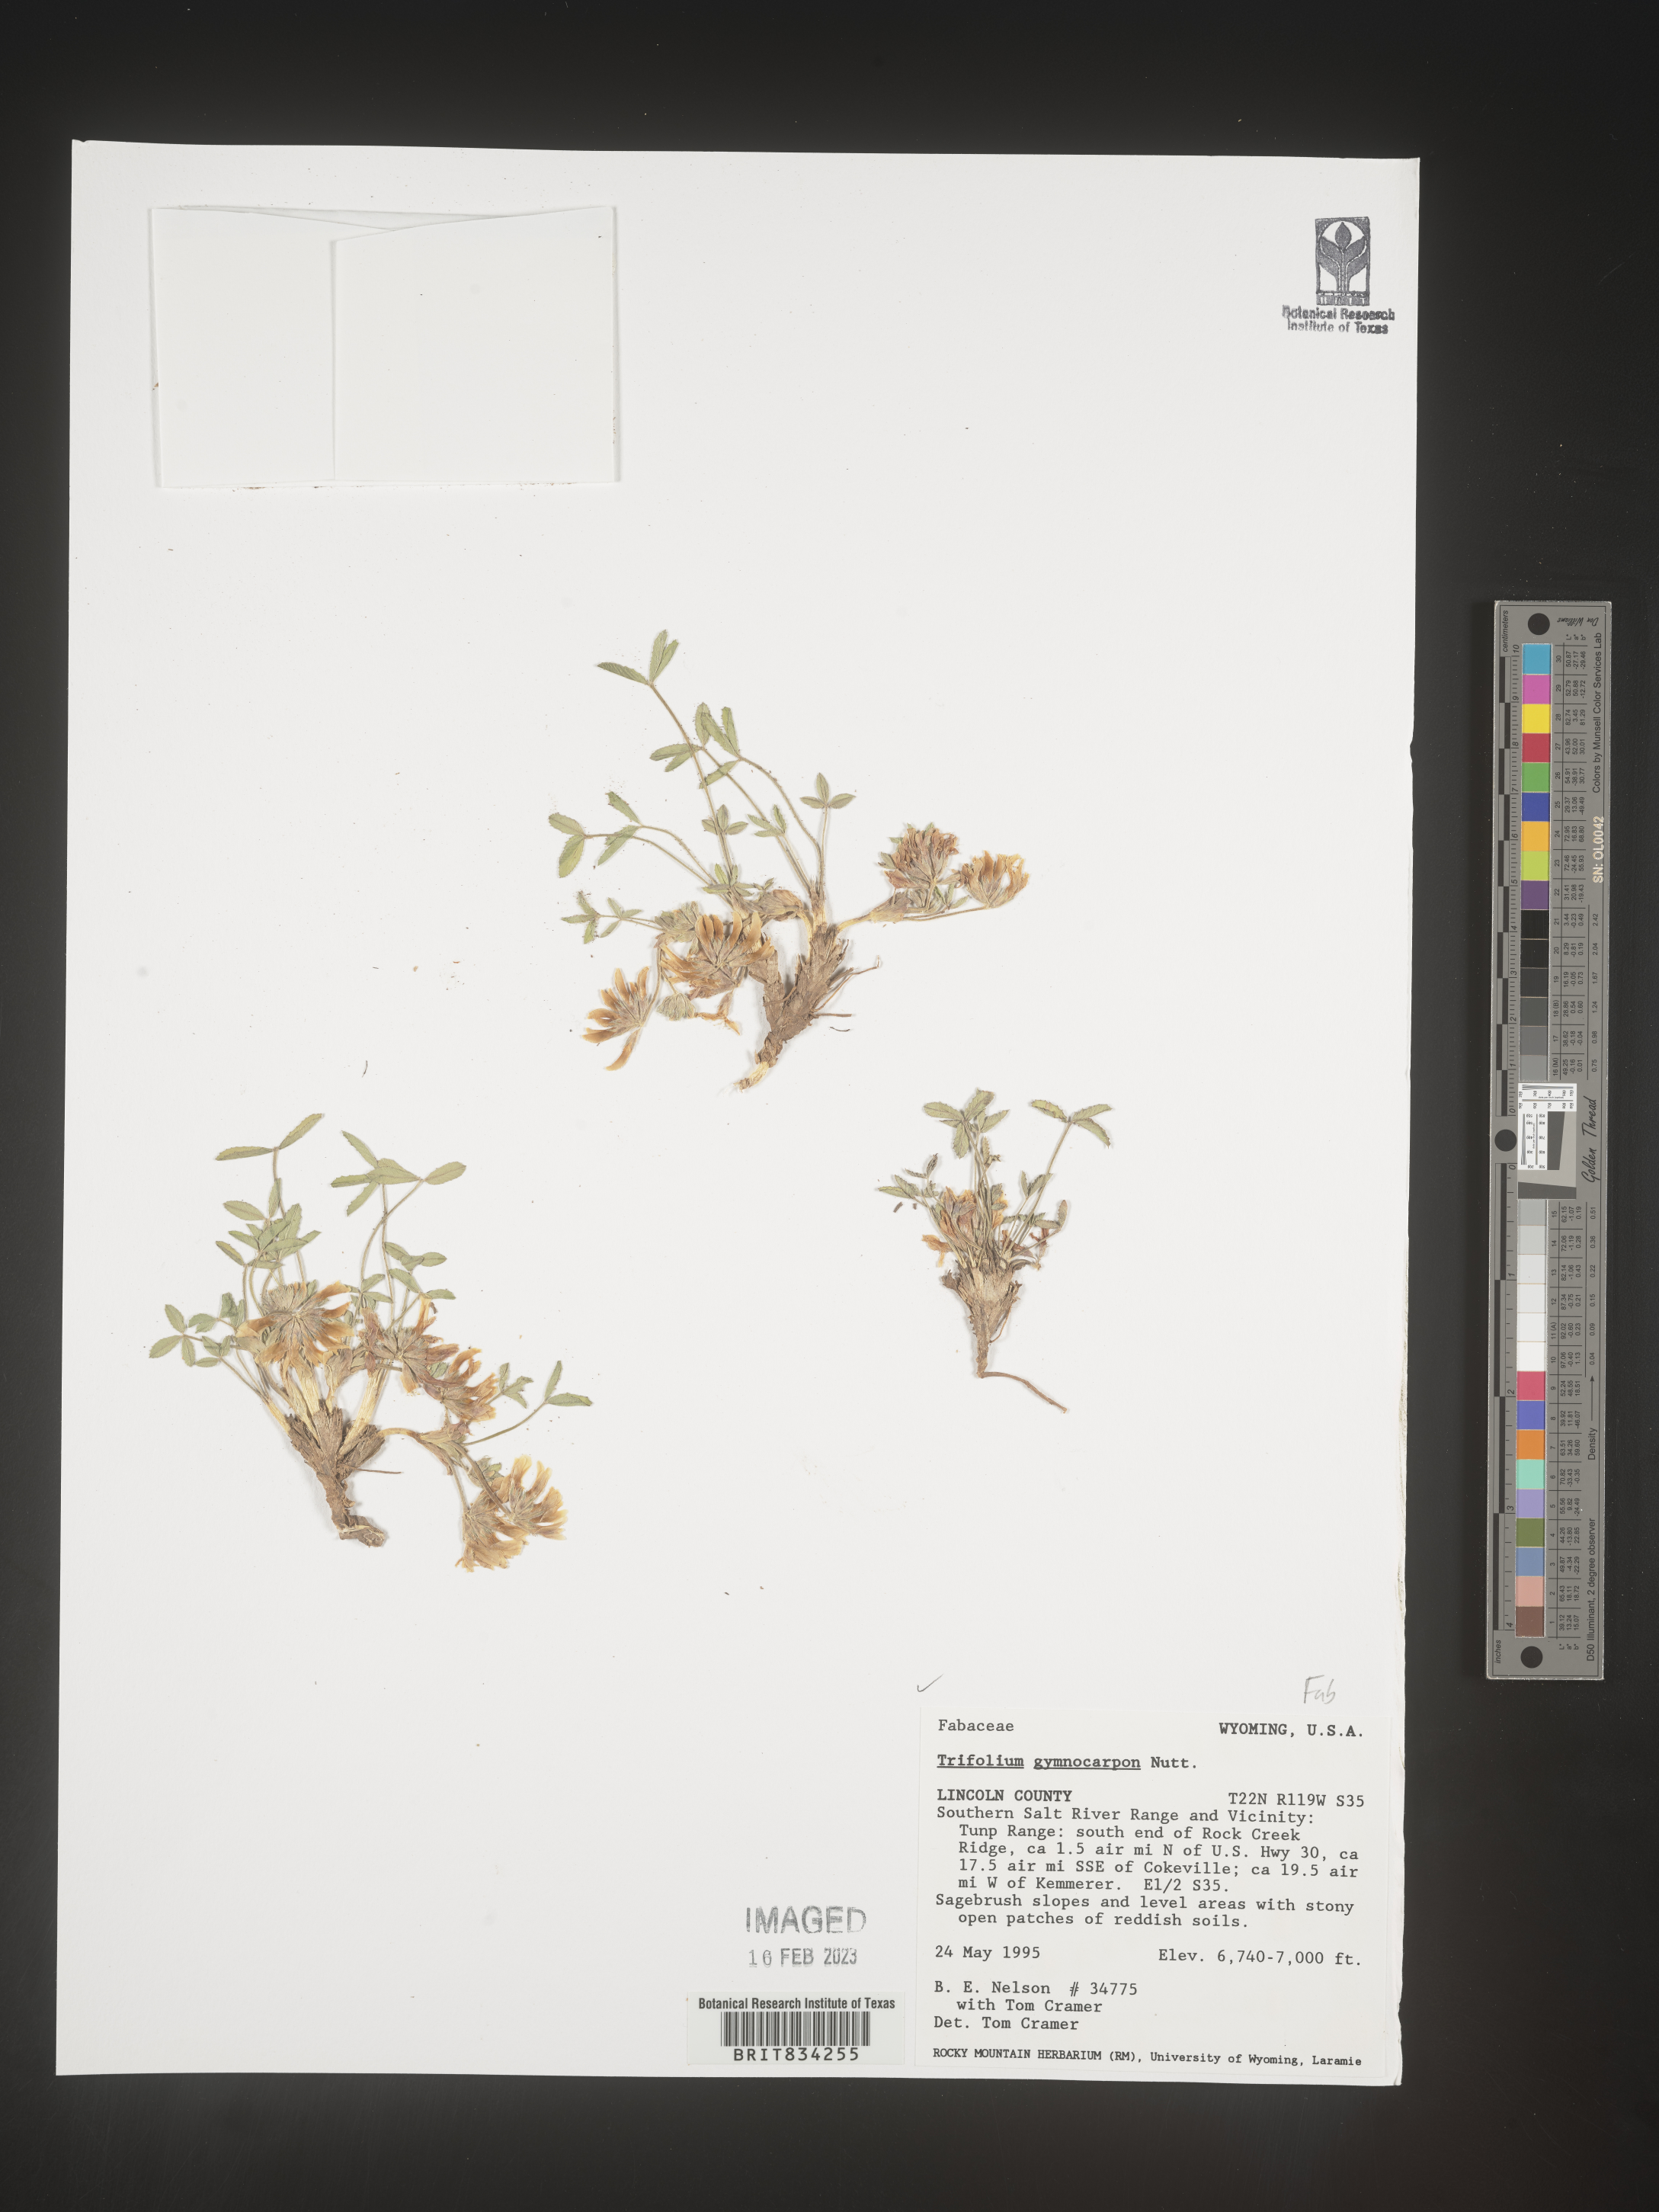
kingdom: Plantae
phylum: Tracheophyta
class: Magnoliopsida
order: Fabales
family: Fabaceae
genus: Trifolium
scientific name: Trifolium
